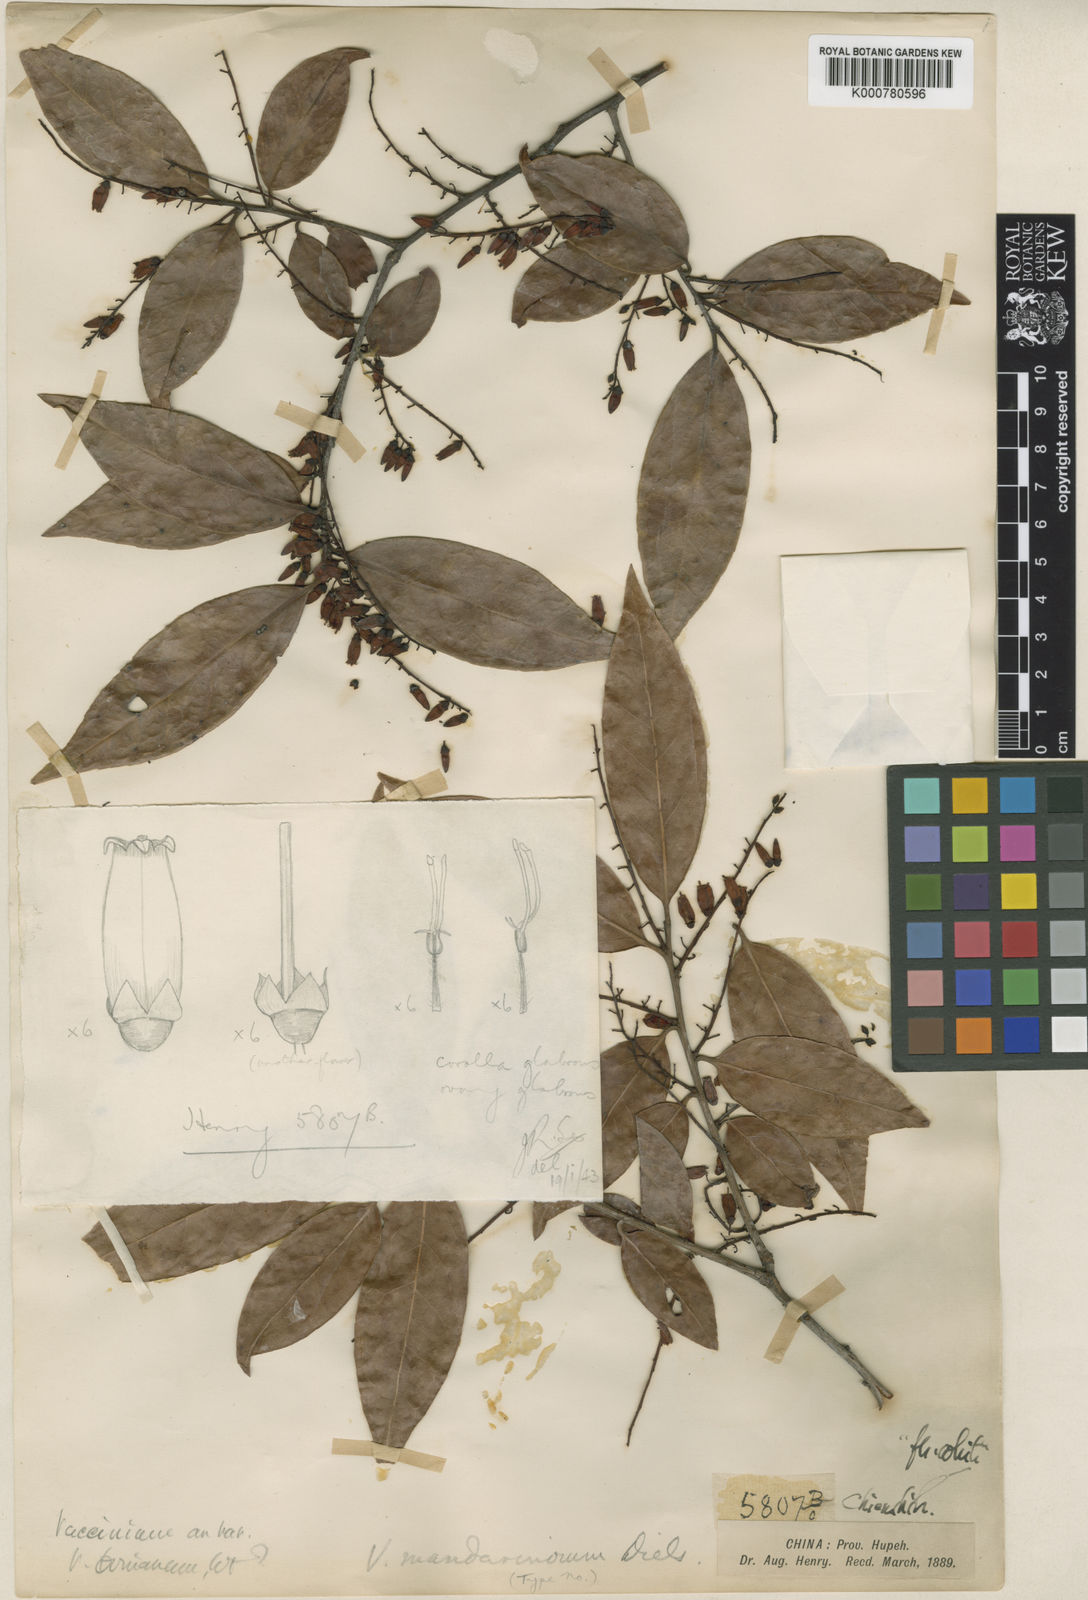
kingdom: Plantae
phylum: Tracheophyta
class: Magnoliopsida
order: Ericales
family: Ericaceae
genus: Vaccinium
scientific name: Vaccinium sprengelii
